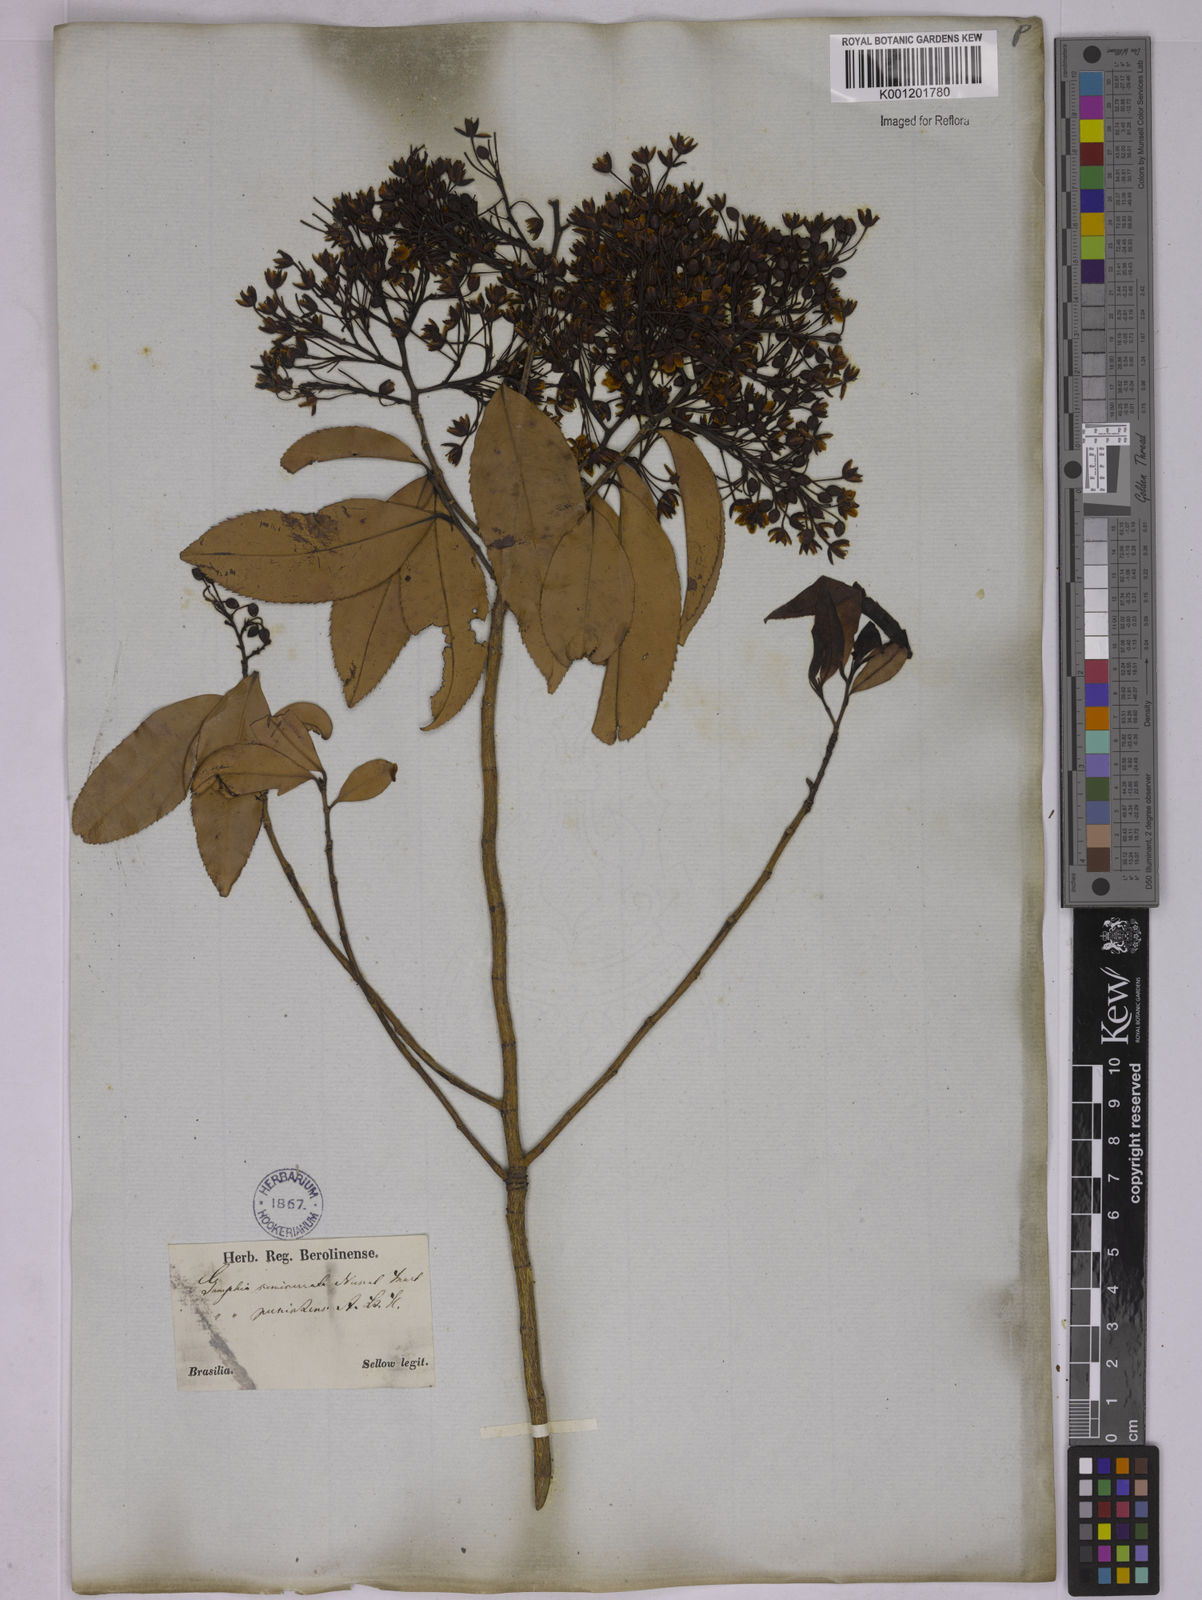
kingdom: Plantae
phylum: Tracheophyta
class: Magnoliopsida
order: Malpighiales
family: Ochnaceae
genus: Ouratea
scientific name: Ouratea semiserrata
